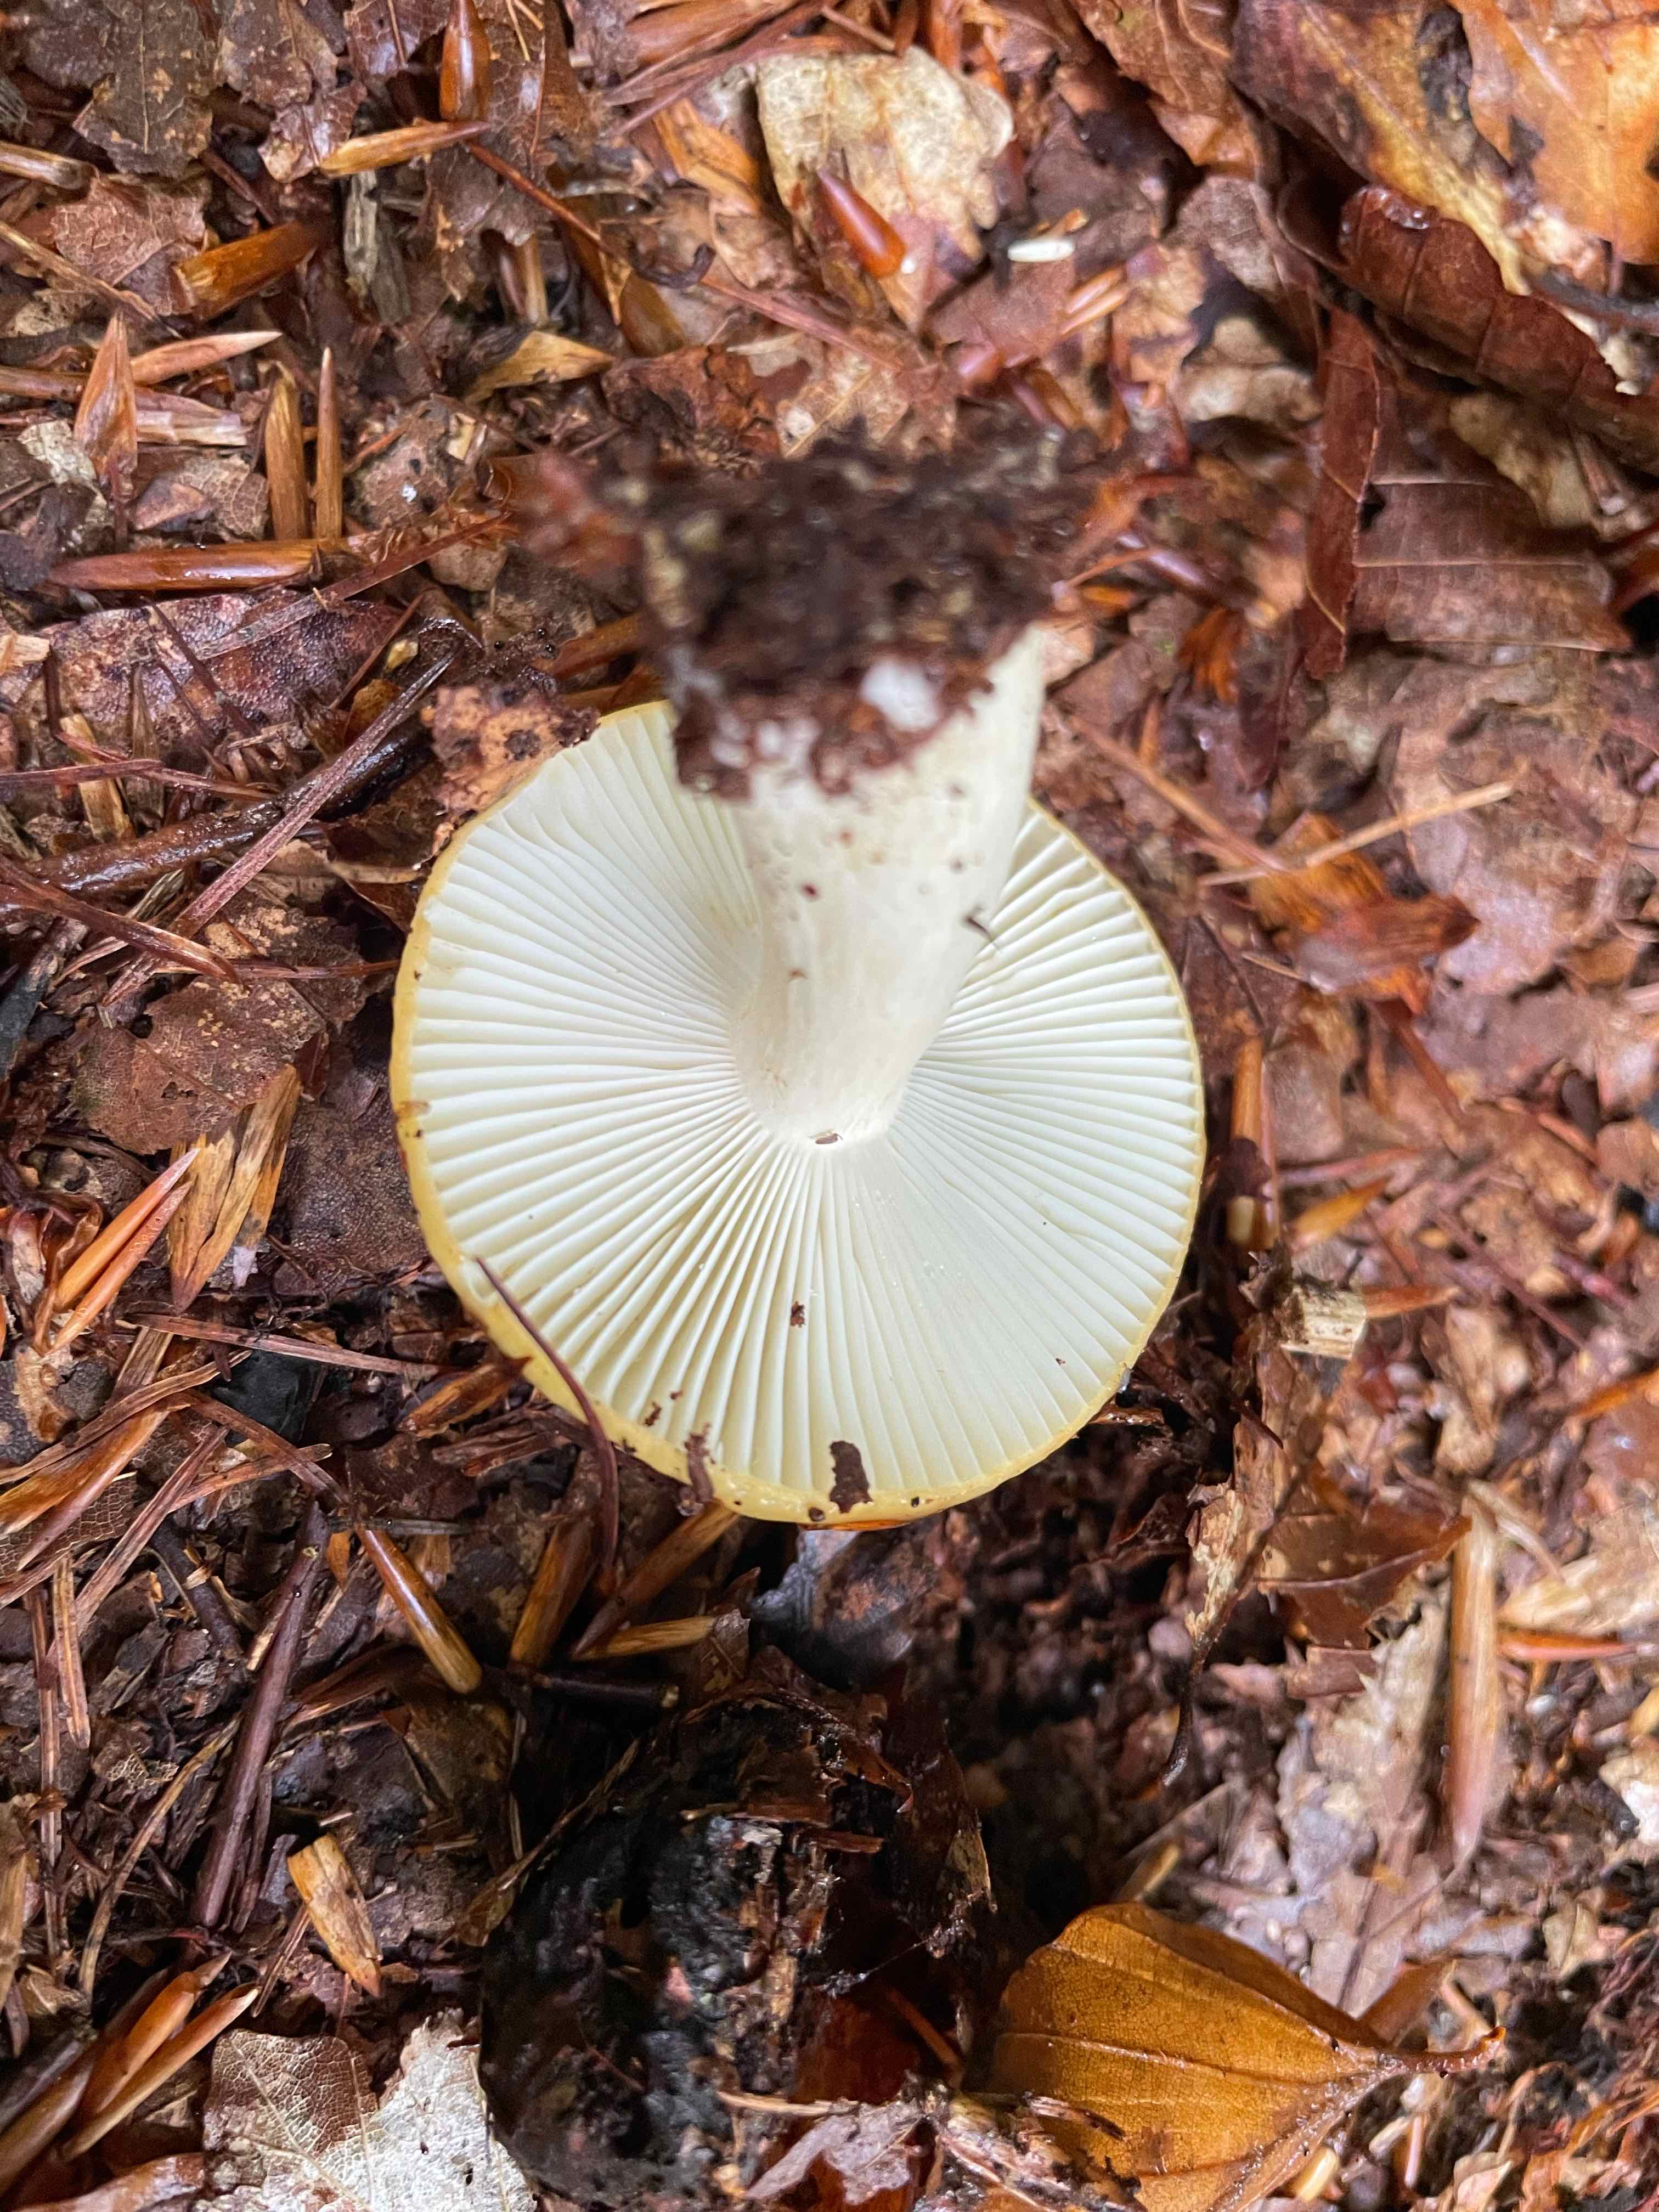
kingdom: Fungi
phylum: Basidiomycota
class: Agaricomycetes
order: Russulales
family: Russulaceae
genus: Russula
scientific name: Russula ochroleuca
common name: okkergul skørhat
